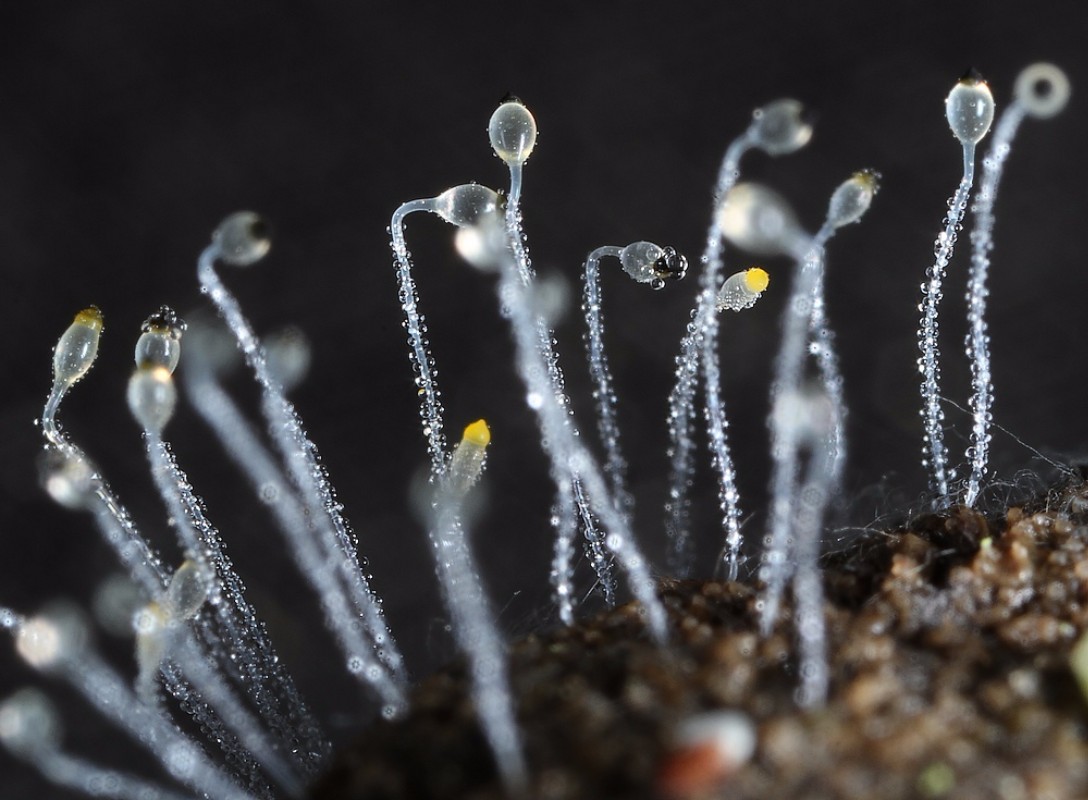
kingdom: Fungi
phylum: Mucoromycota
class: Mucoromycetes
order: Mucorales
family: Pilobolaceae
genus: Pilobolus
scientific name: Pilobolus
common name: boldkaster
